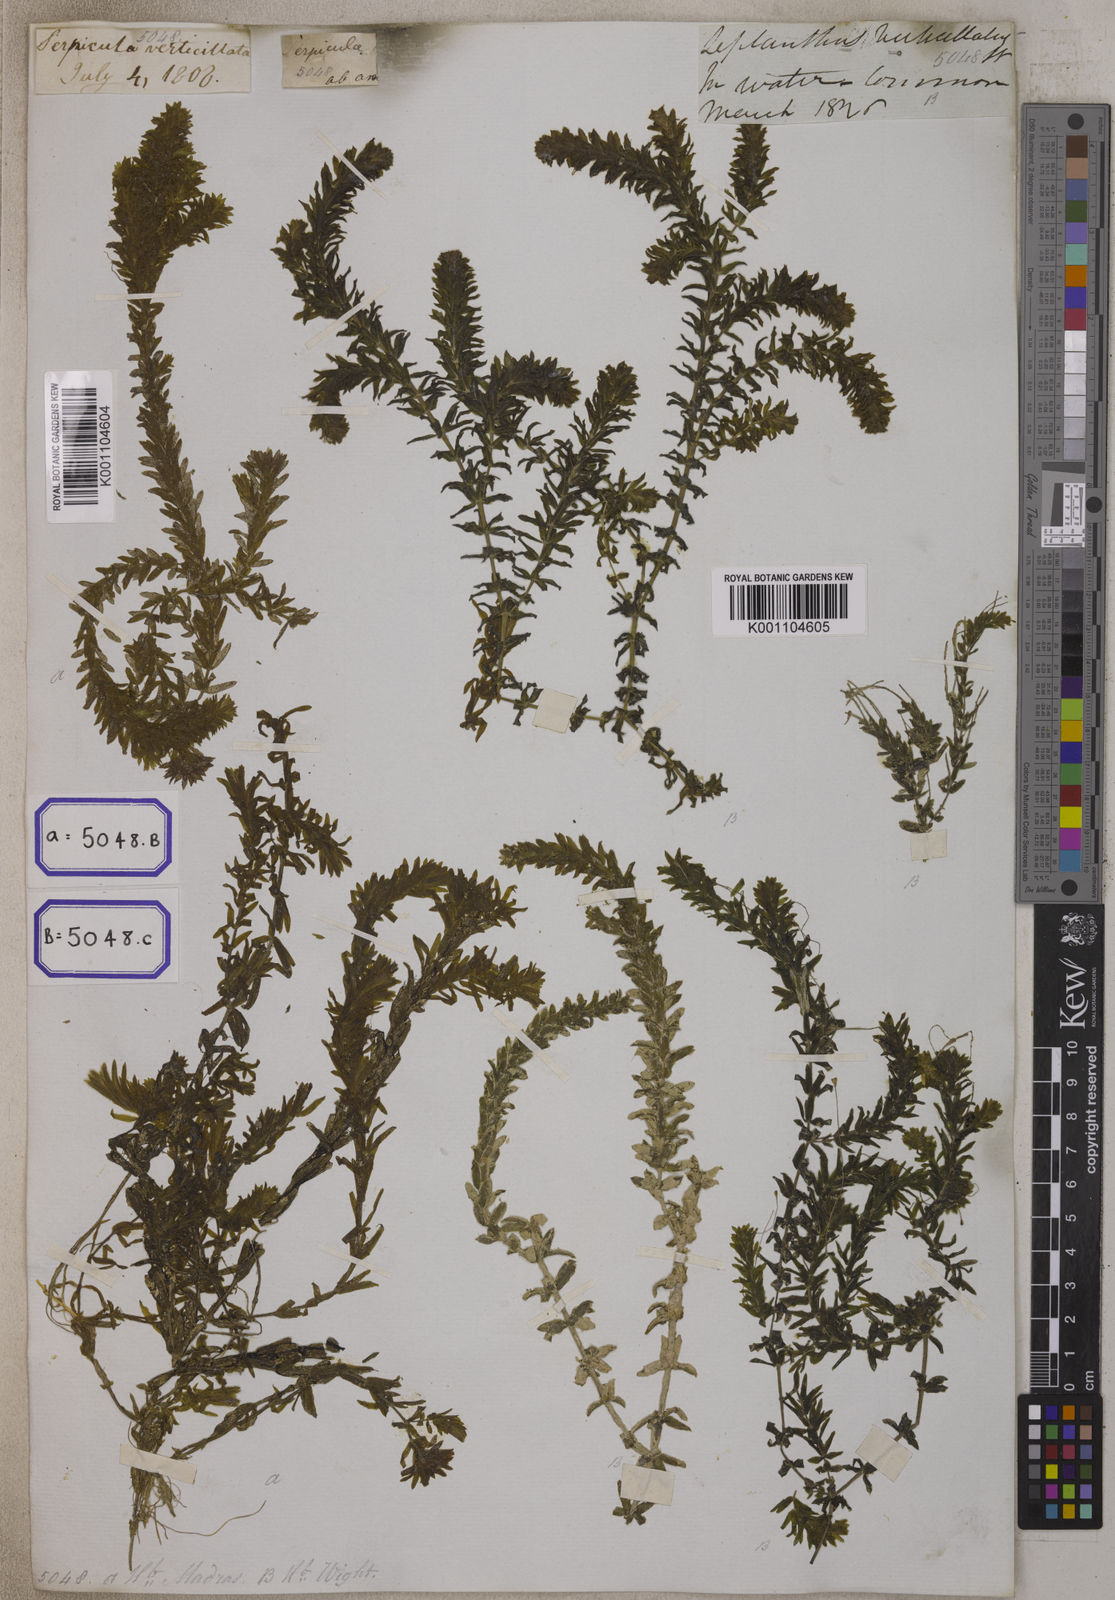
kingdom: Plantae
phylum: Tracheophyta
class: Magnoliopsida
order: Saxifragales
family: Haloragaceae
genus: Serpicula
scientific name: Serpicula
